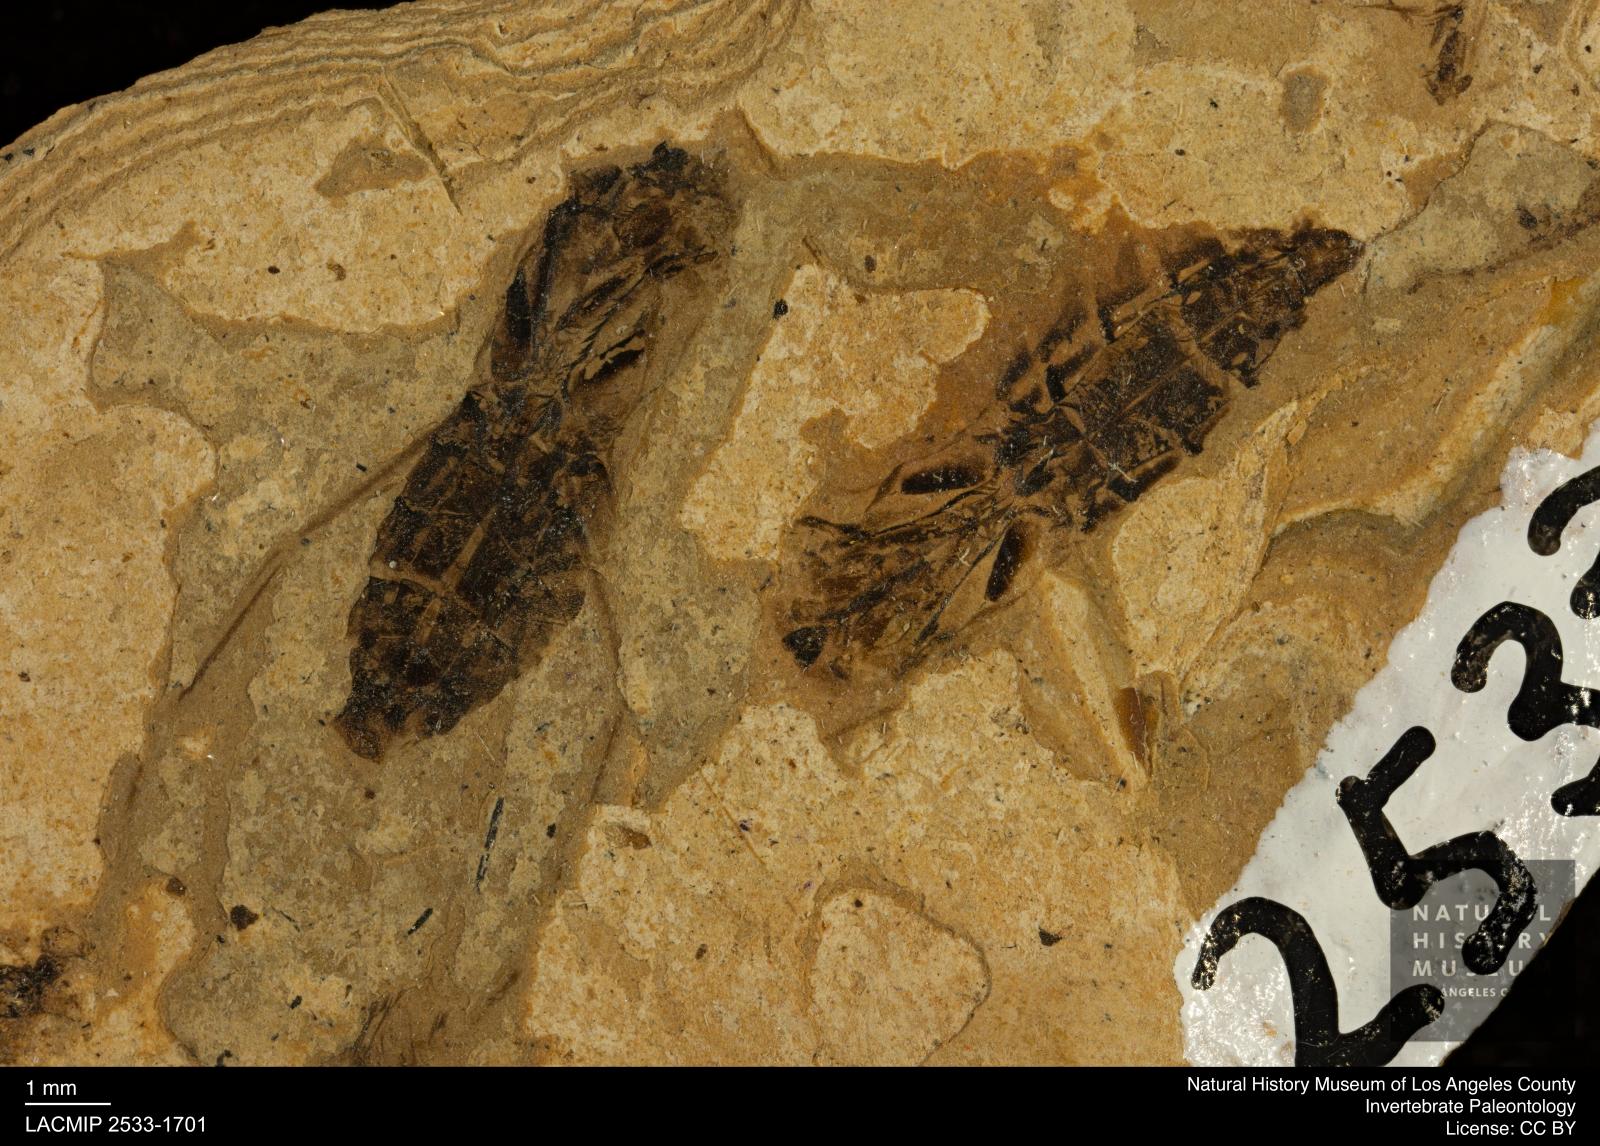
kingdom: Animalia
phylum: Arthropoda
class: Insecta
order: Hemiptera
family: Notonectidae
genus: Notonecta
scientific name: Notonecta
